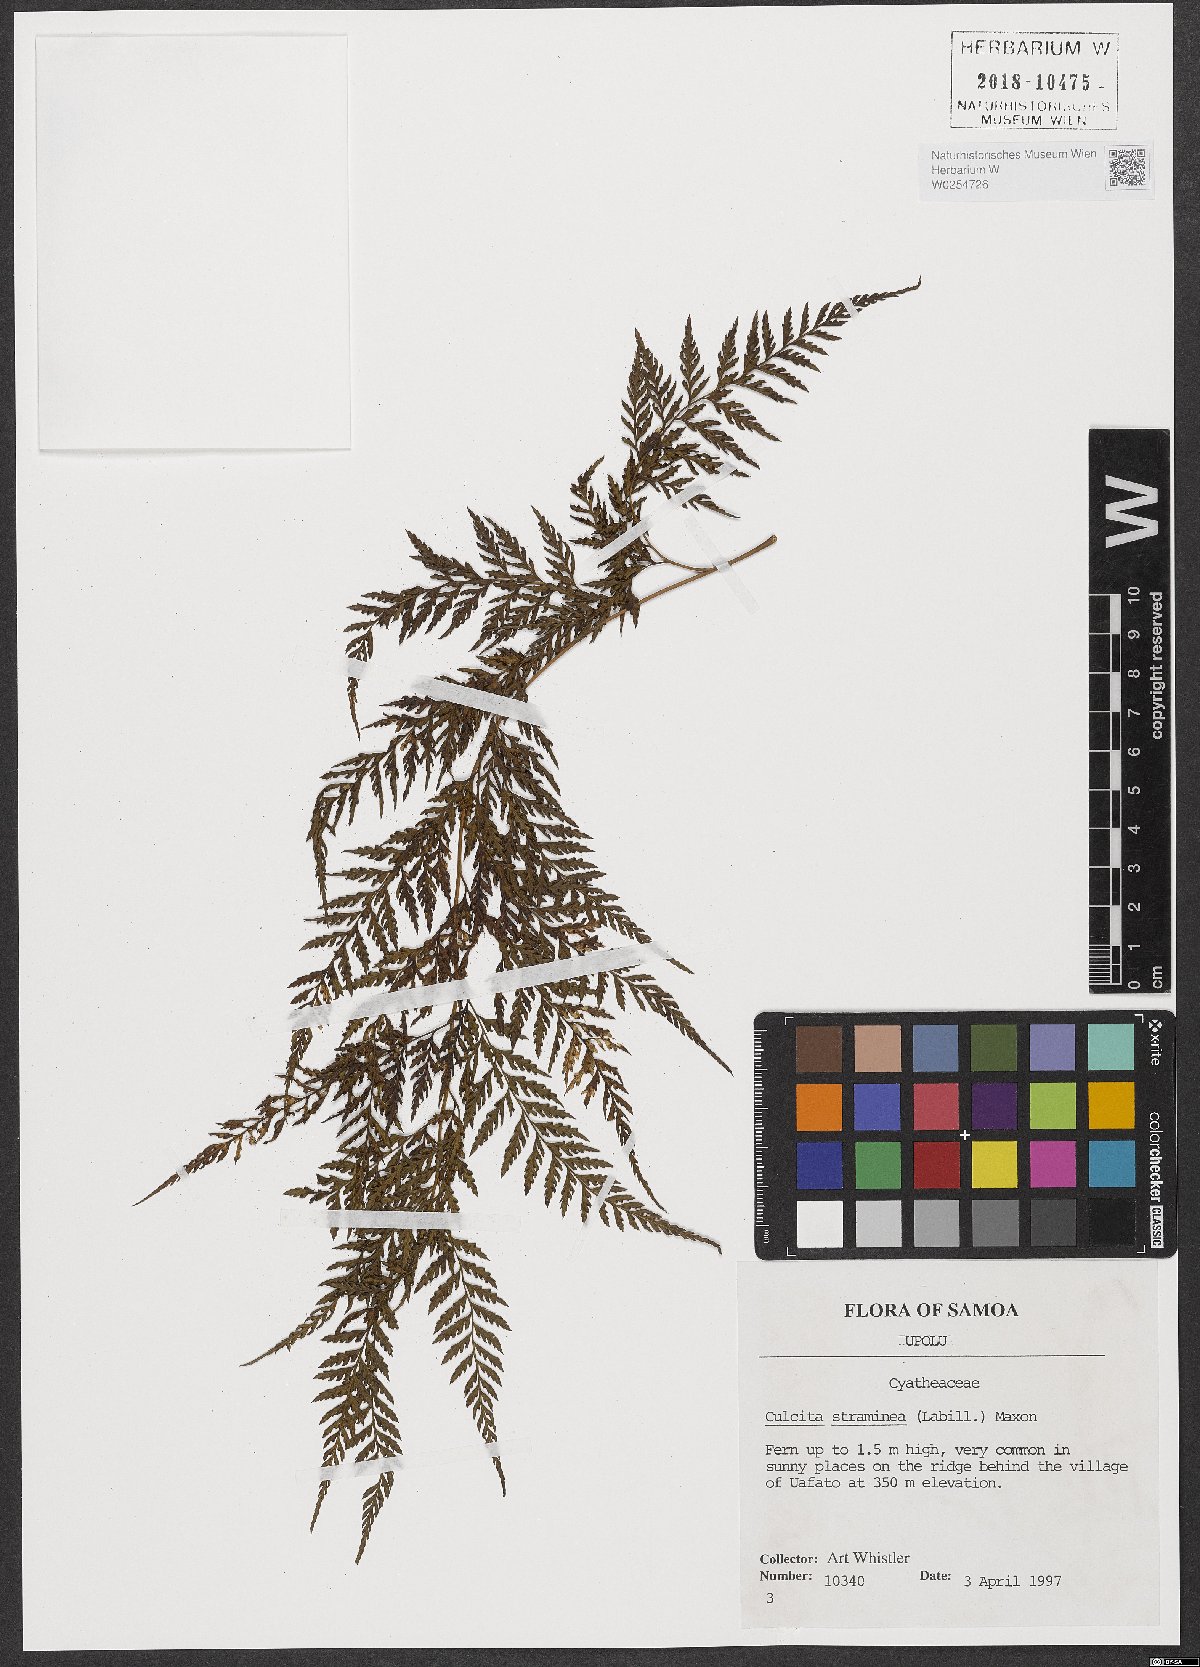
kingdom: Plantae
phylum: Tracheophyta
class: Polypodiopsida
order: Cyatheales
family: Dicksoniaceae
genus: Calochlaena
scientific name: Calochlaena straminea
